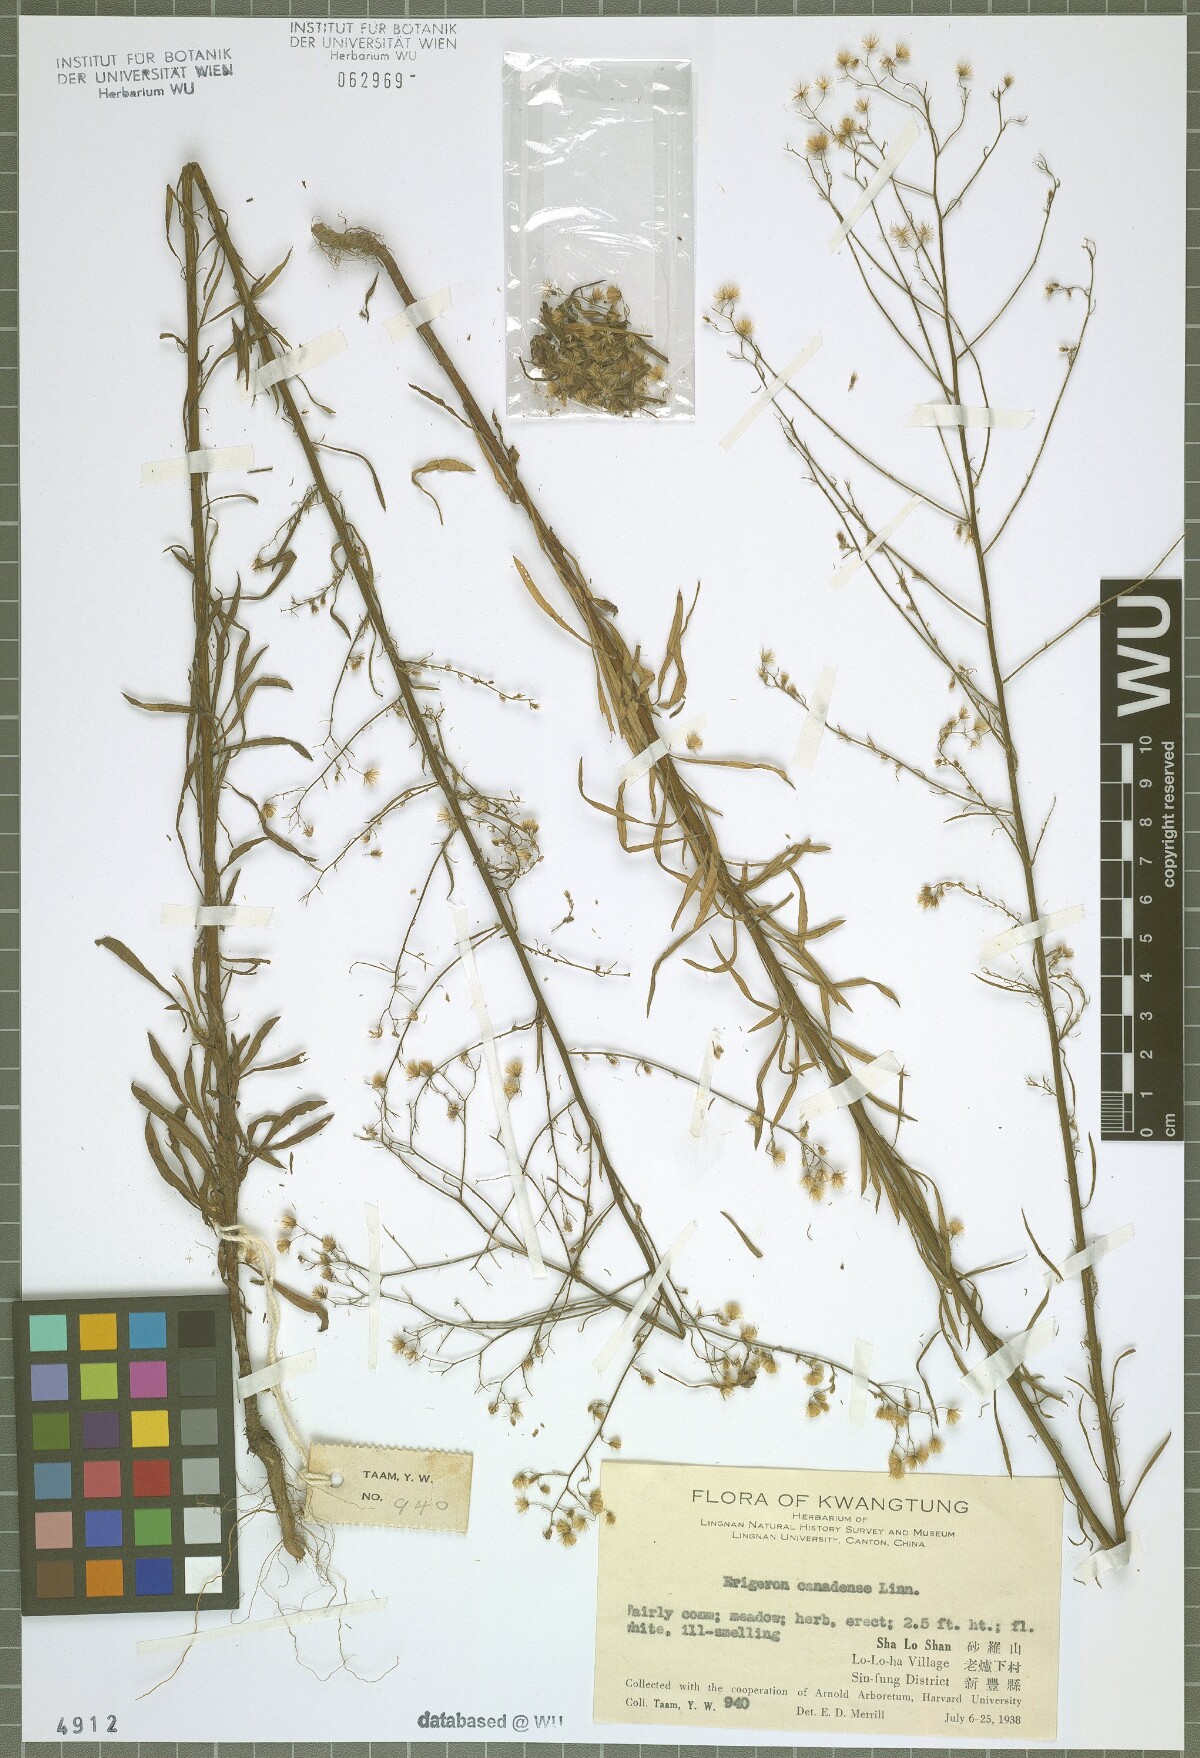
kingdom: Plantae
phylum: Tracheophyta
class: Magnoliopsida
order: Asterales
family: Asteraceae
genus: Erigeron
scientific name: Erigeron canadensis
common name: Canadian fleabane
